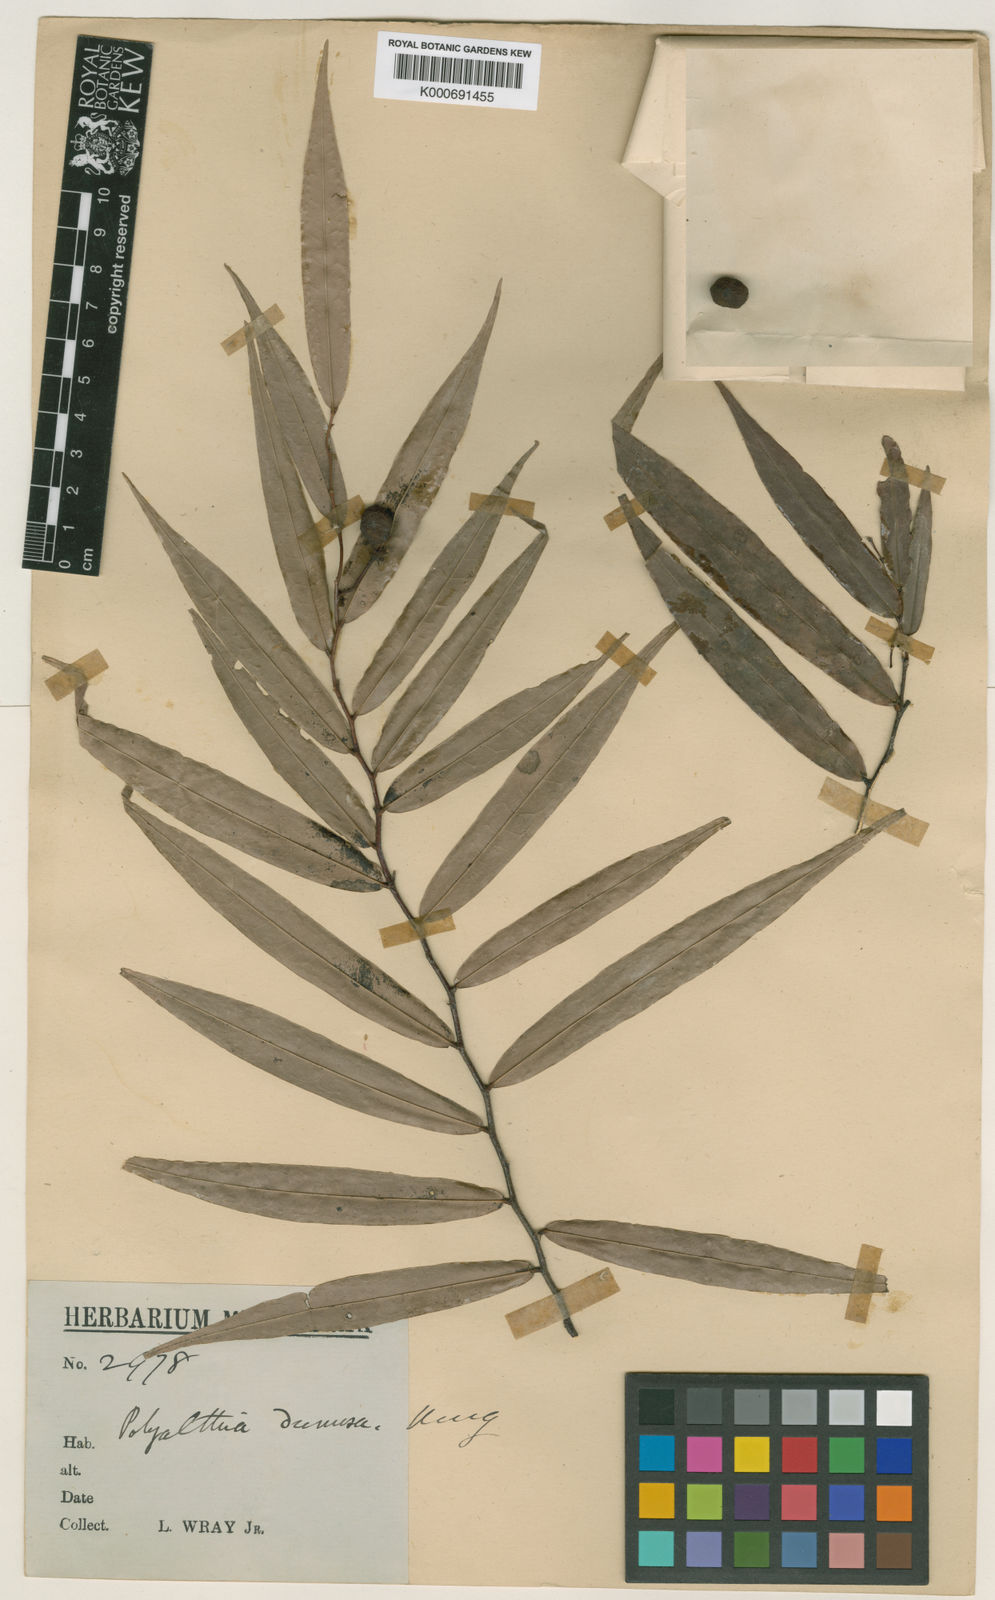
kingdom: Plantae
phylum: Tracheophyta
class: Magnoliopsida
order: Magnoliales
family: Annonaceae
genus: Polyalthia
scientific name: Polyalthia dumosa
